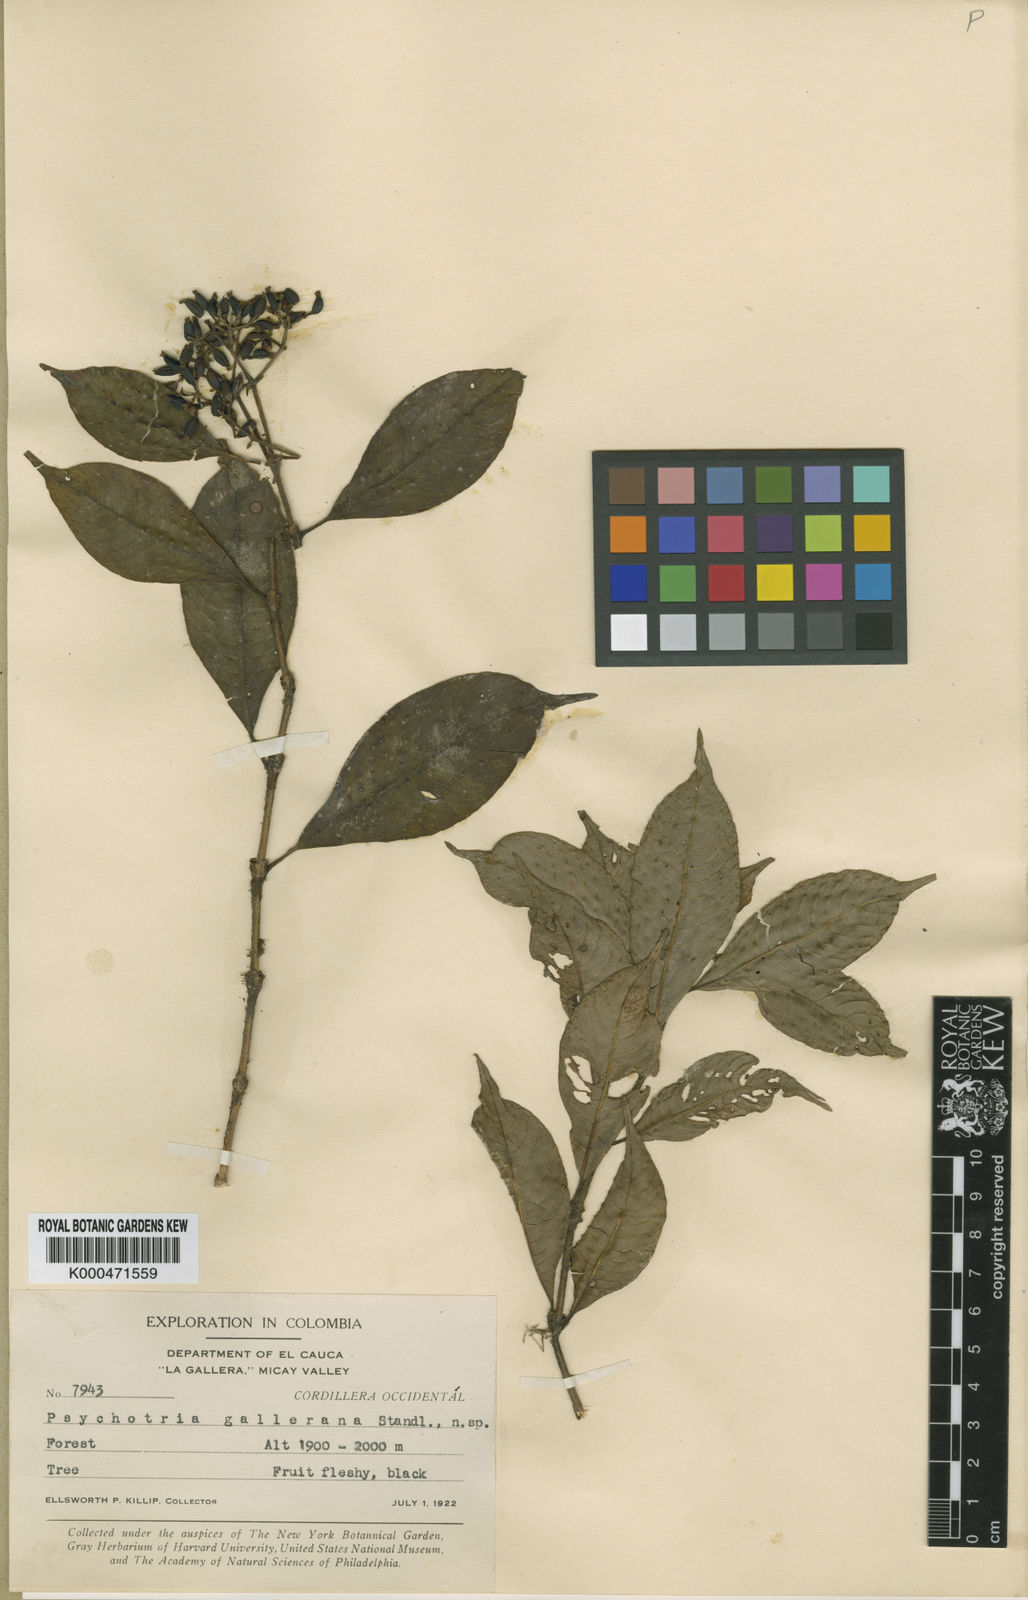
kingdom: Plantae
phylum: Tracheophyta
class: Magnoliopsida
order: Gentianales
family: Rubiaceae
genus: Palicourea
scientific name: Palicourea
